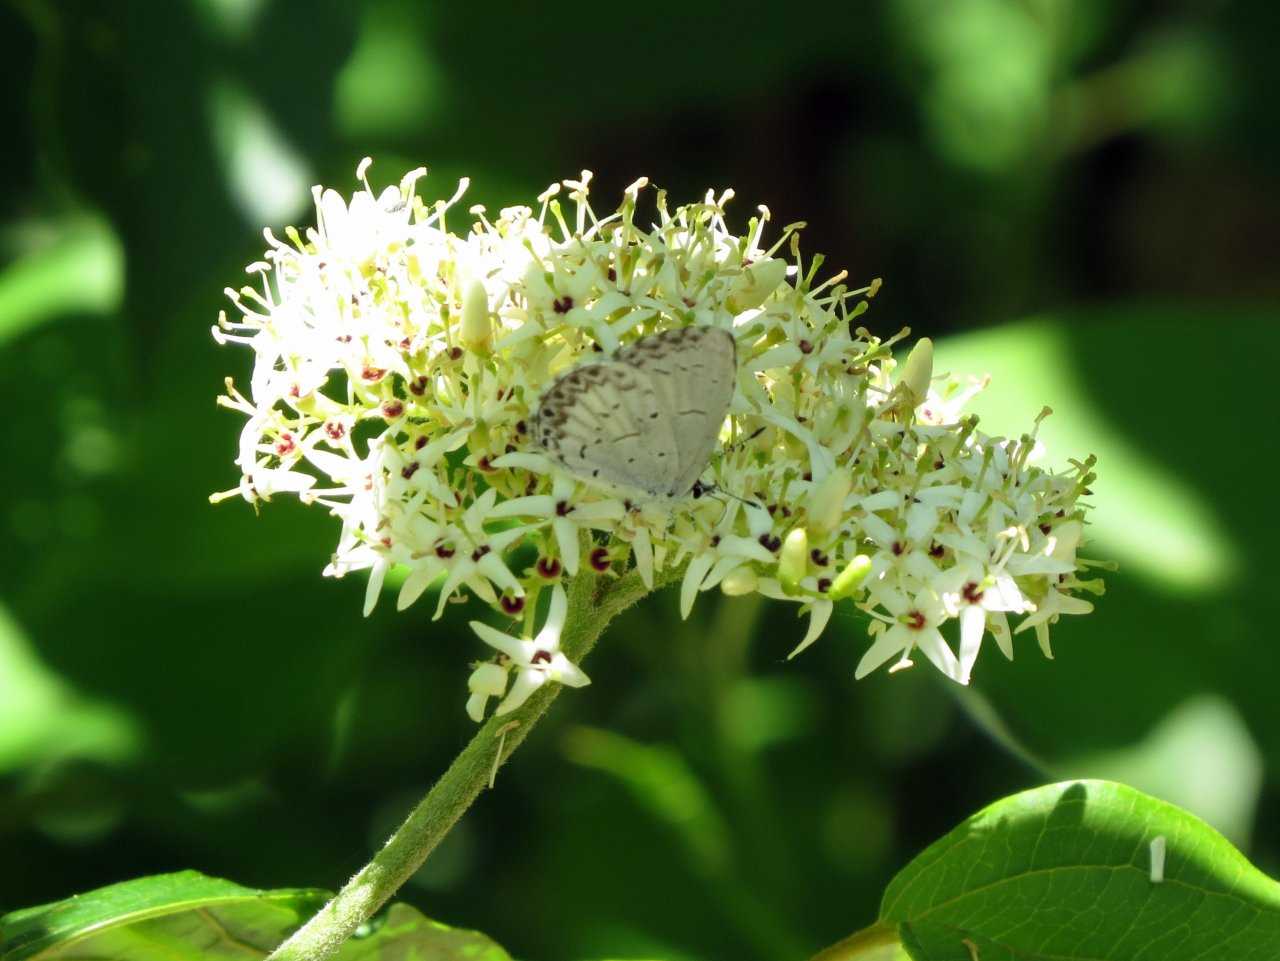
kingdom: Animalia
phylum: Arthropoda
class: Insecta
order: Lepidoptera
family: Lycaenidae
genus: Celastrina
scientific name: Celastrina
